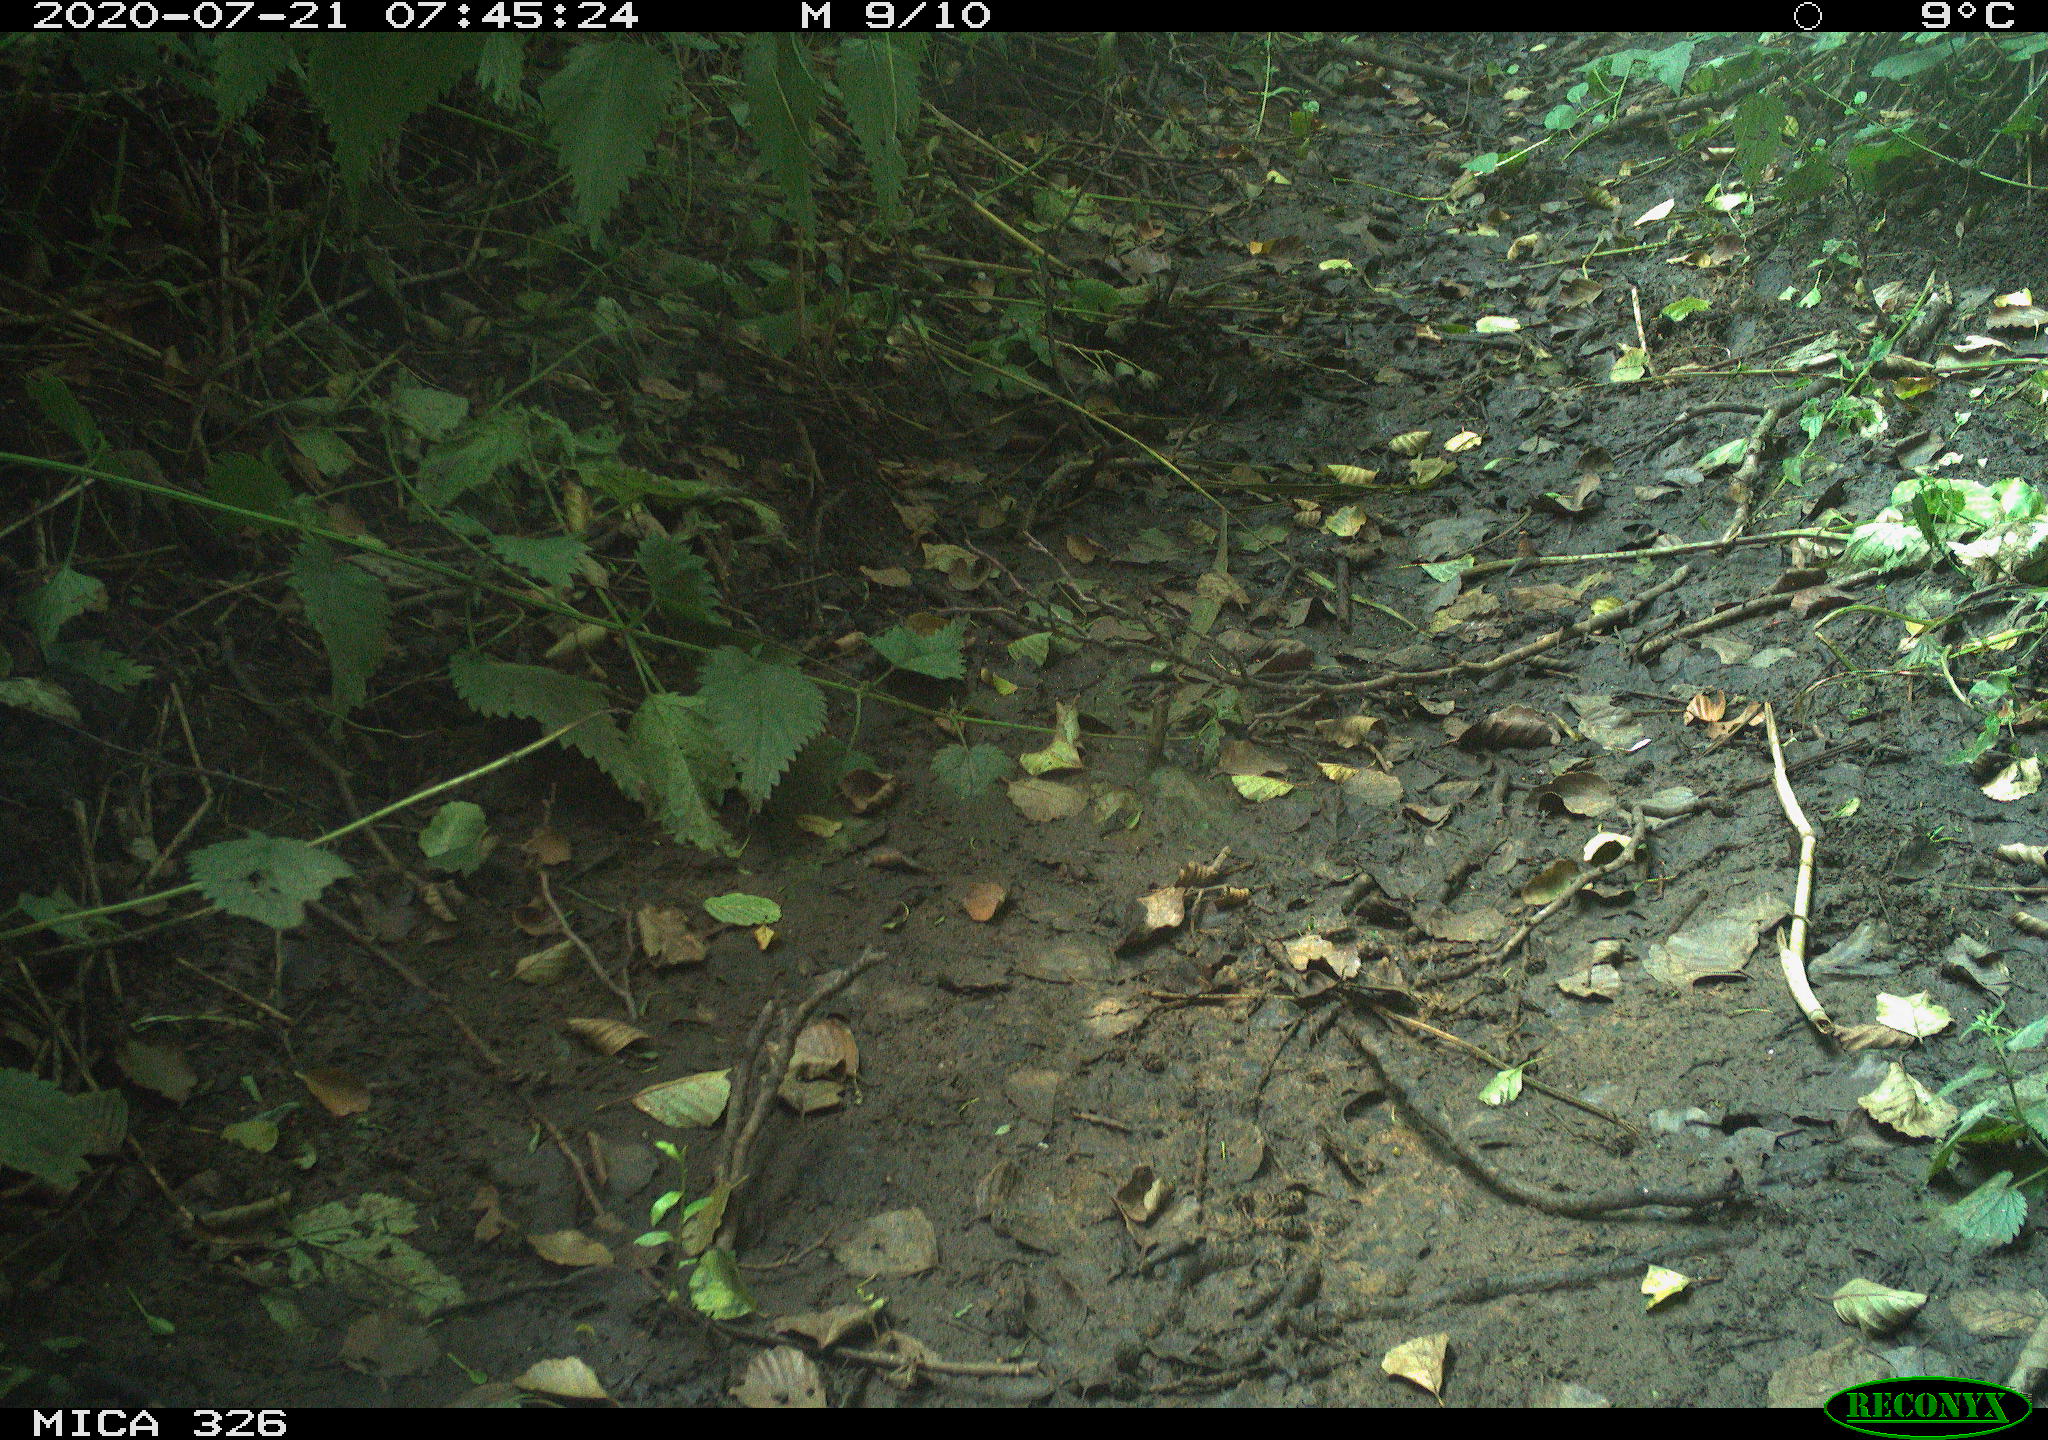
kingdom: Animalia
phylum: Chordata
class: Aves
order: Passeriformes
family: Turdidae
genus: Turdus
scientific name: Turdus philomelos
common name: Song thrush
